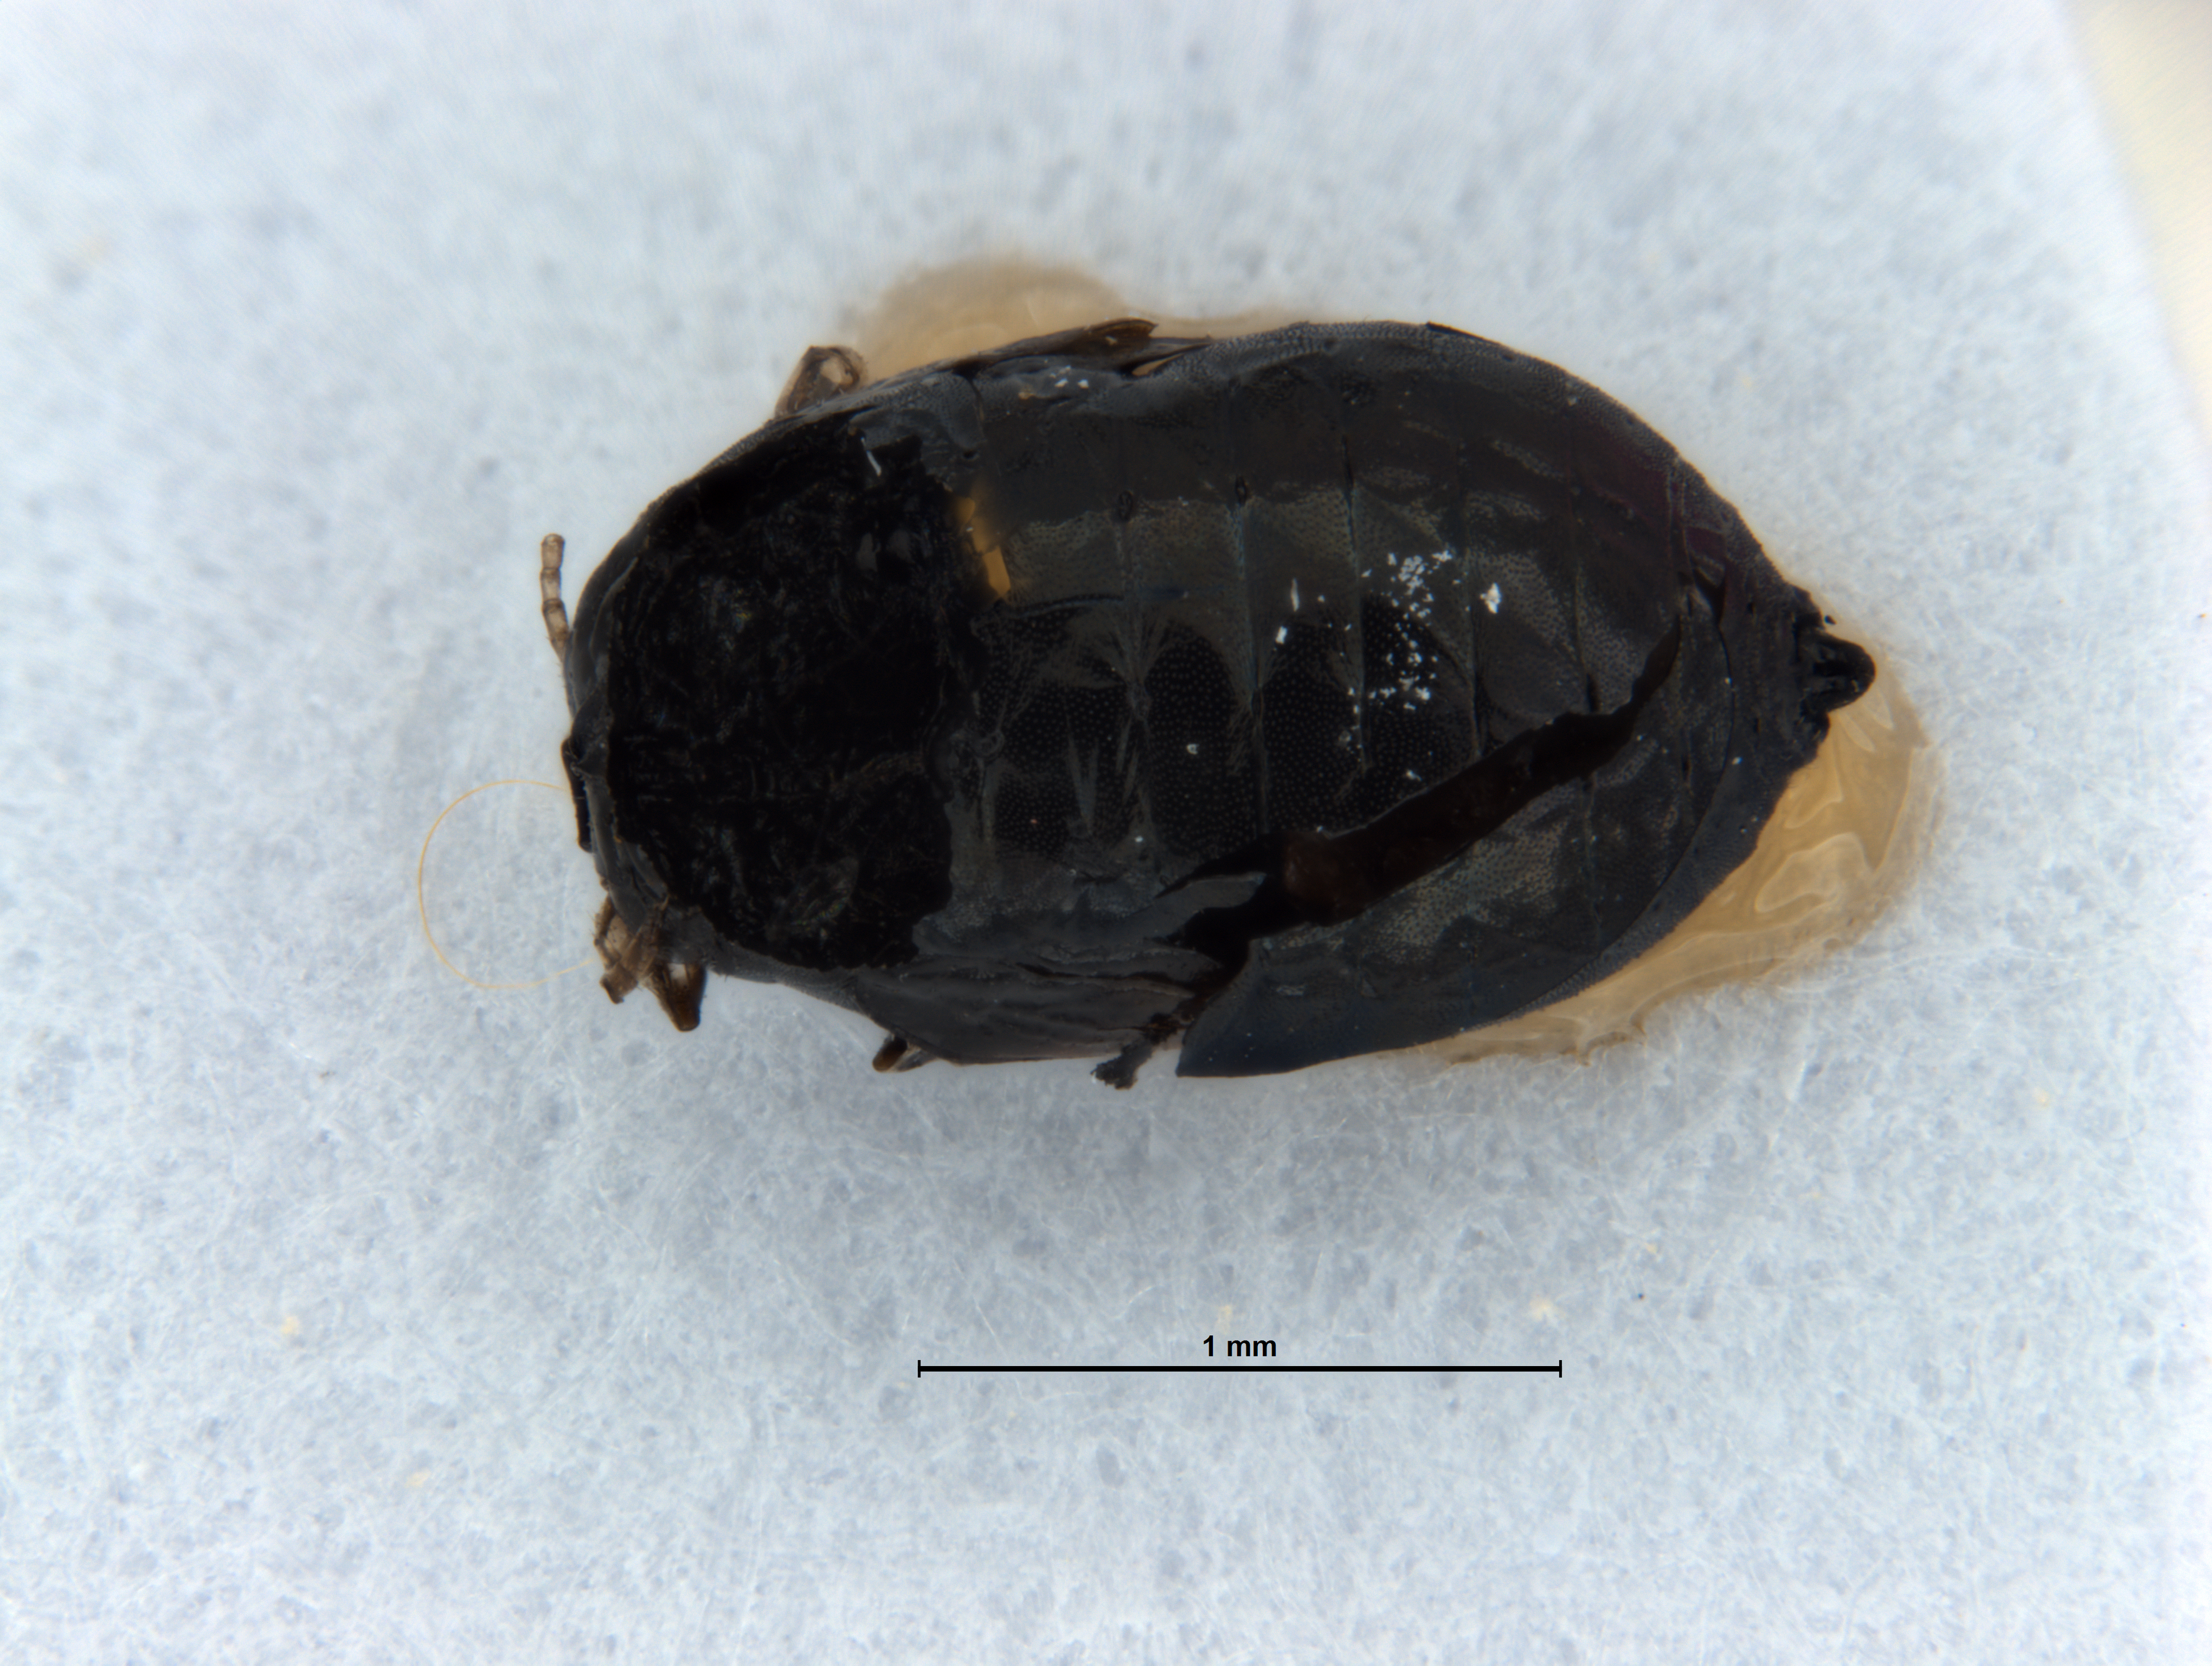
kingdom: Animalia
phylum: Arthropoda
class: Insecta
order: Hymenoptera
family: Encyrtidae
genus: Psyllaephagus
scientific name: Psyllaephagus gemitus
